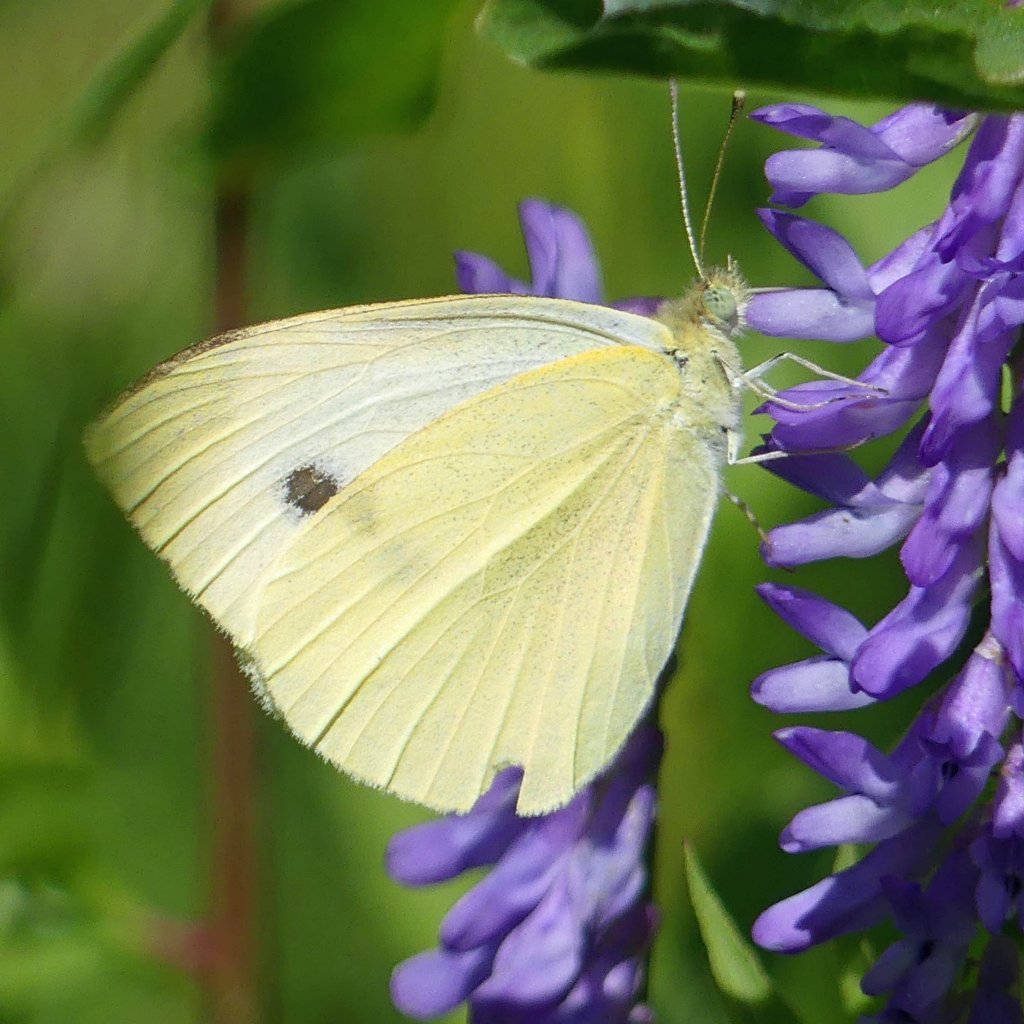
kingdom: Animalia
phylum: Arthropoda
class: Insecta
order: Lepidoptera
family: Pieridae
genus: Pieris
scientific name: Pieris rapae
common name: Cabbage White
